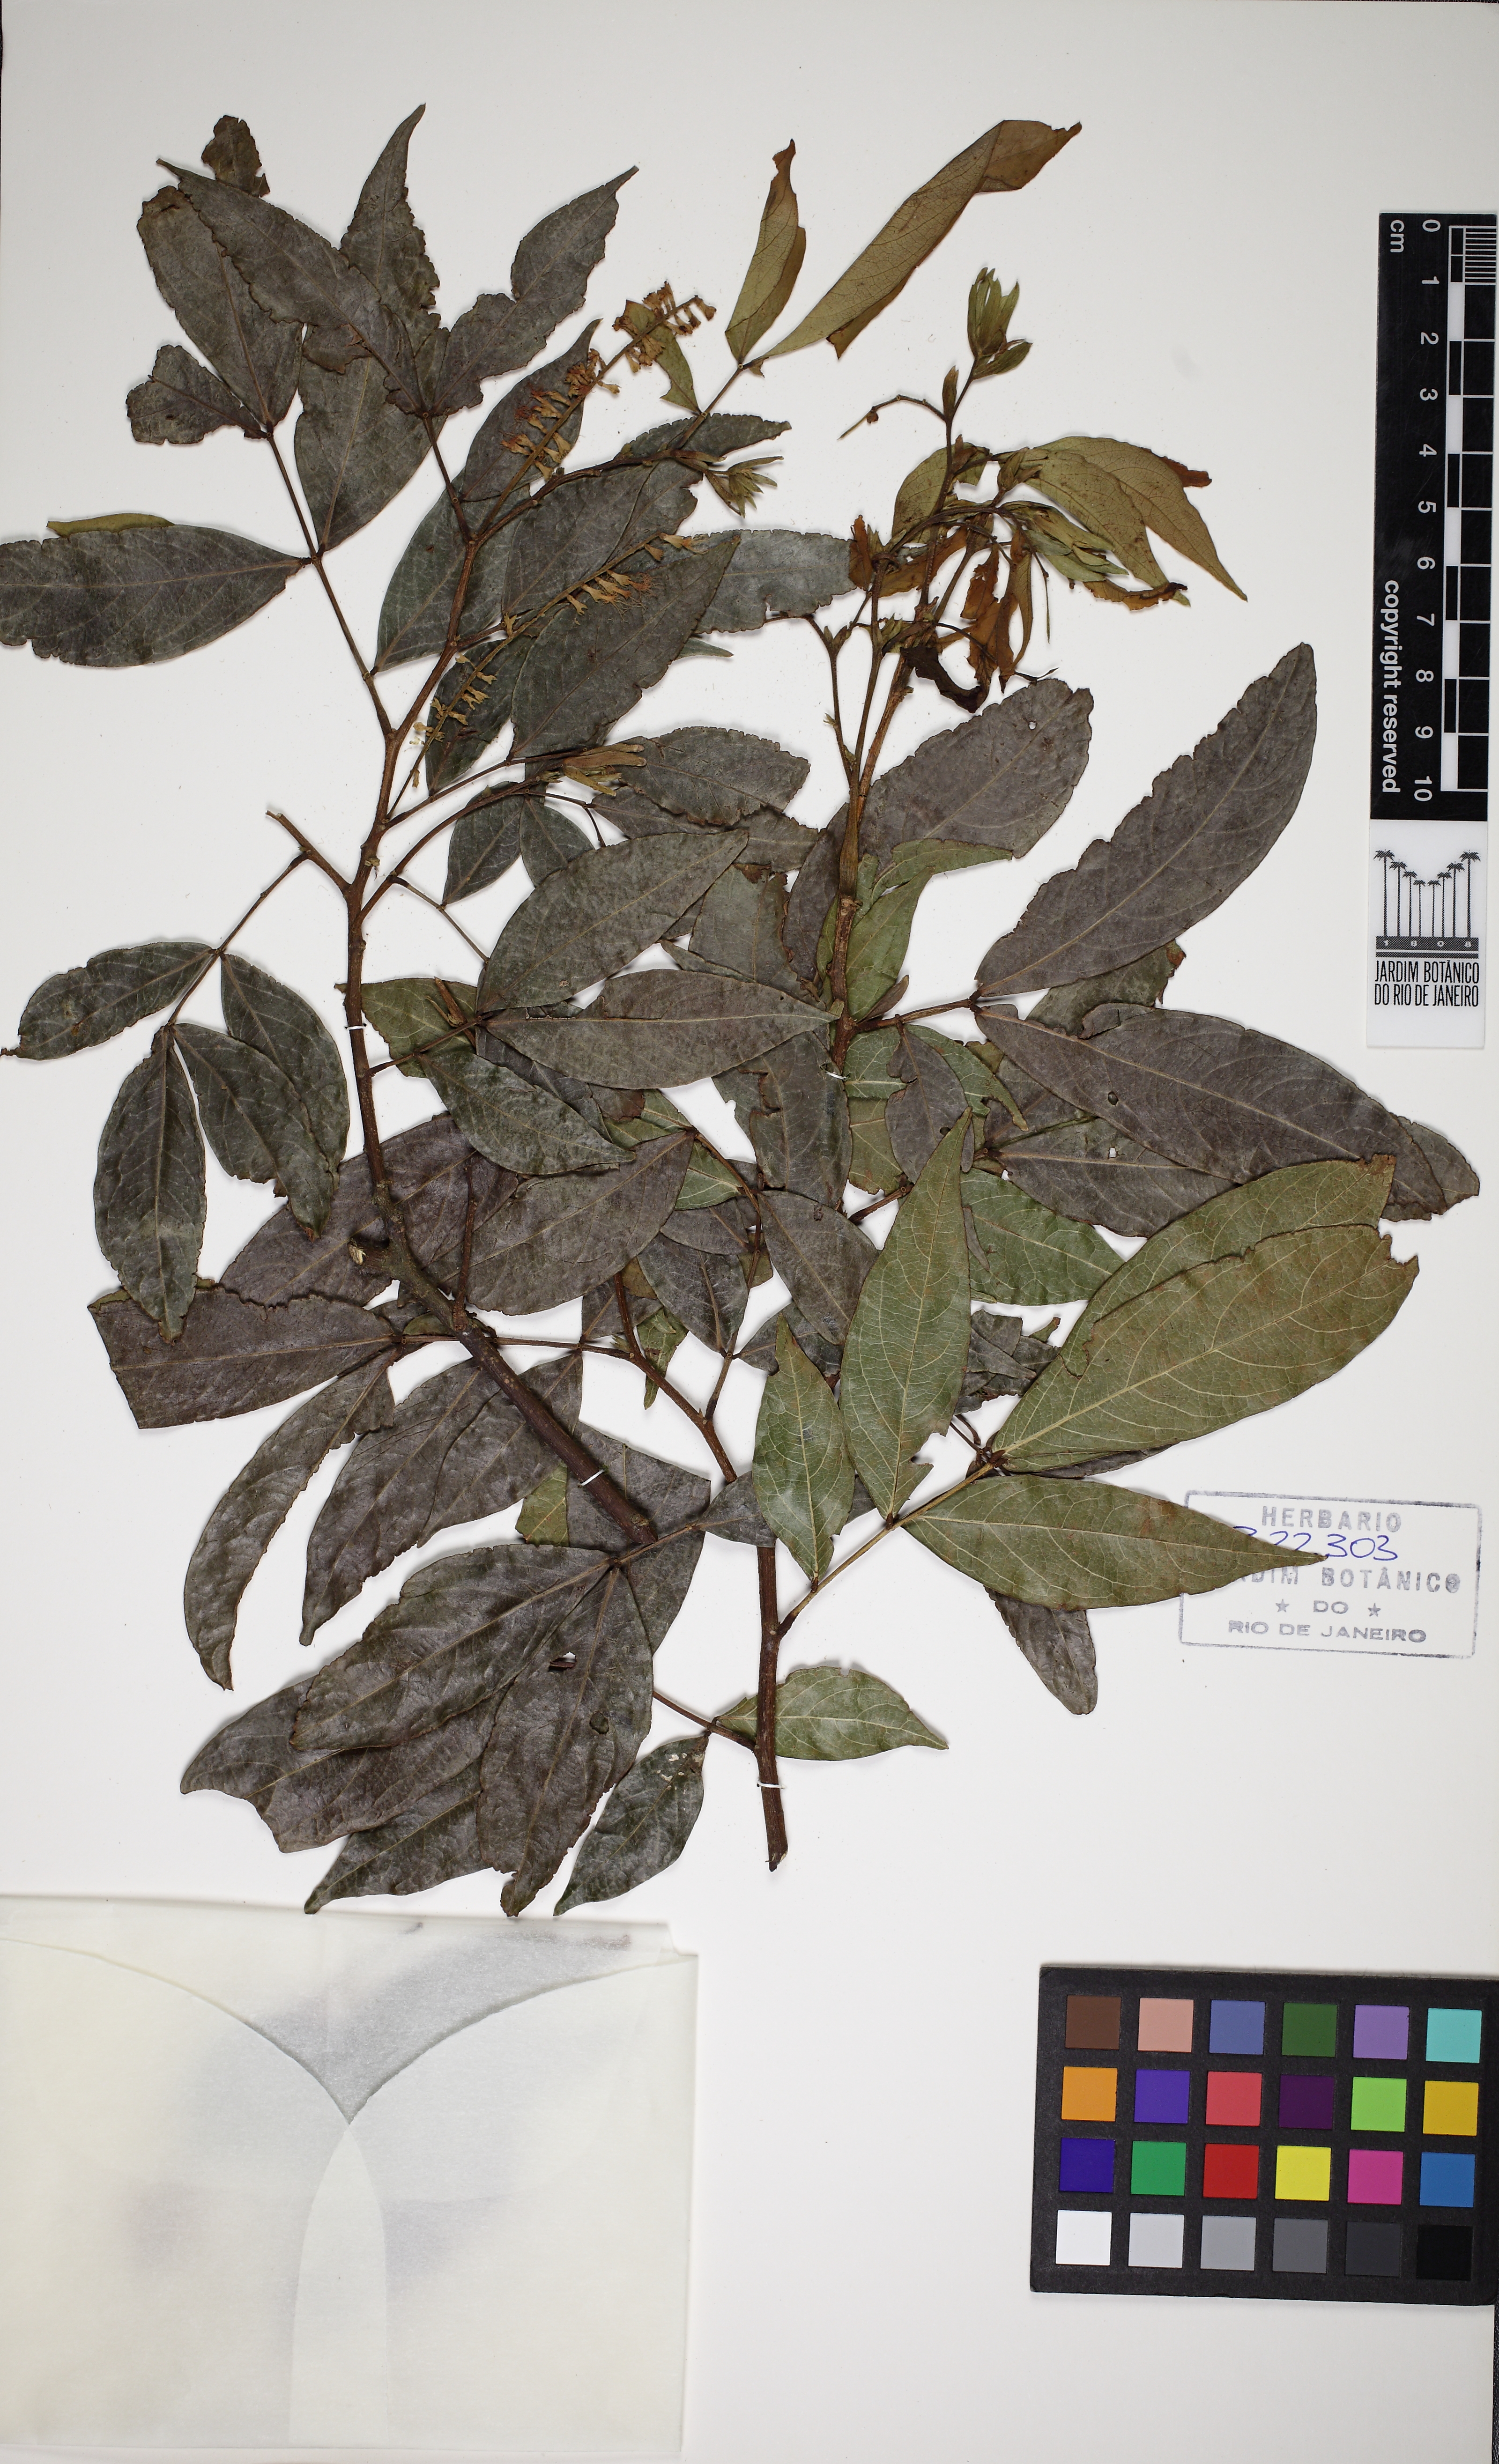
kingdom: Plantae
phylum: Tracheophyta
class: Magnoliopsida
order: Fabales
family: Fabaceae
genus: Inga
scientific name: Inga marginata
